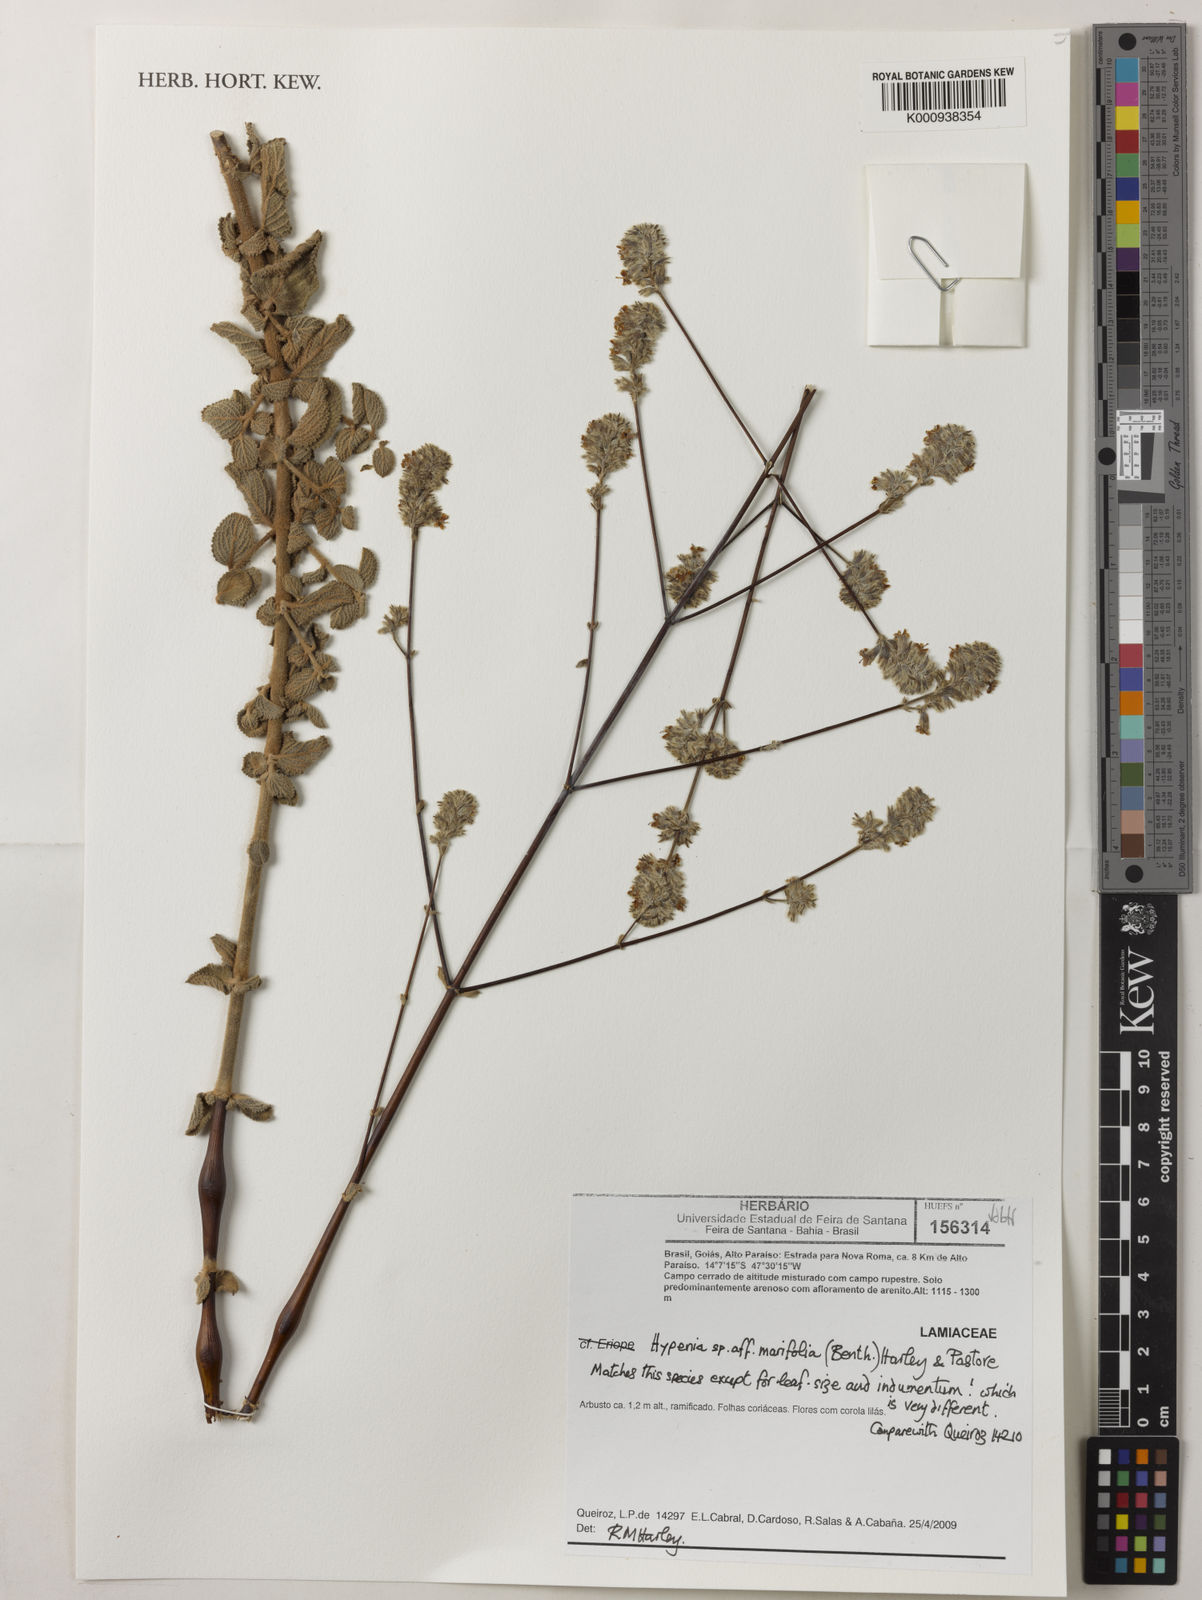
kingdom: Plantae
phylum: Tracheophyta
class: Magnoliopsida
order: Lamiales
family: Lamiaceae
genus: Hypenia
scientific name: Hypenia
